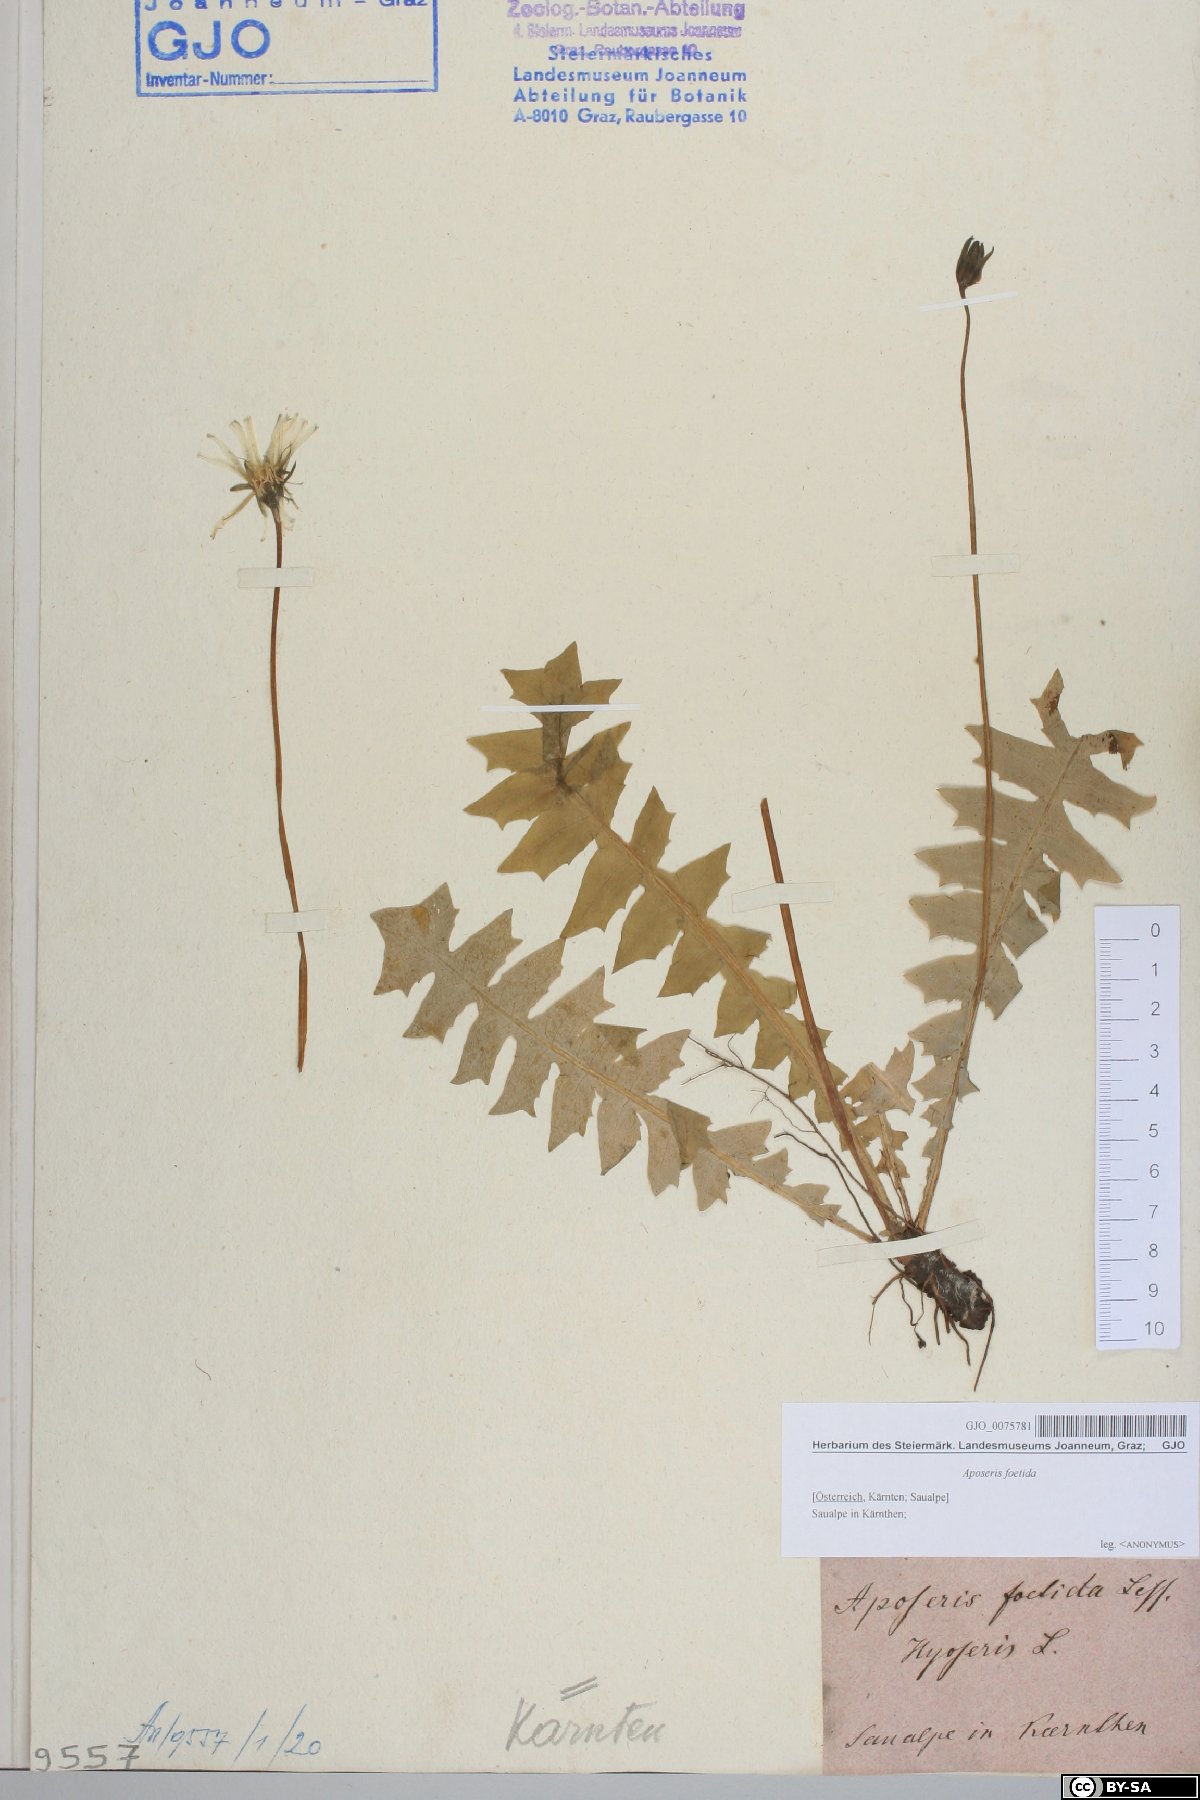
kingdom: Plantae
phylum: Tracheophyta
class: Magnoliopsida
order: Asterales
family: Asteraceae
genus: Aposeris
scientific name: Aposeris foetida
